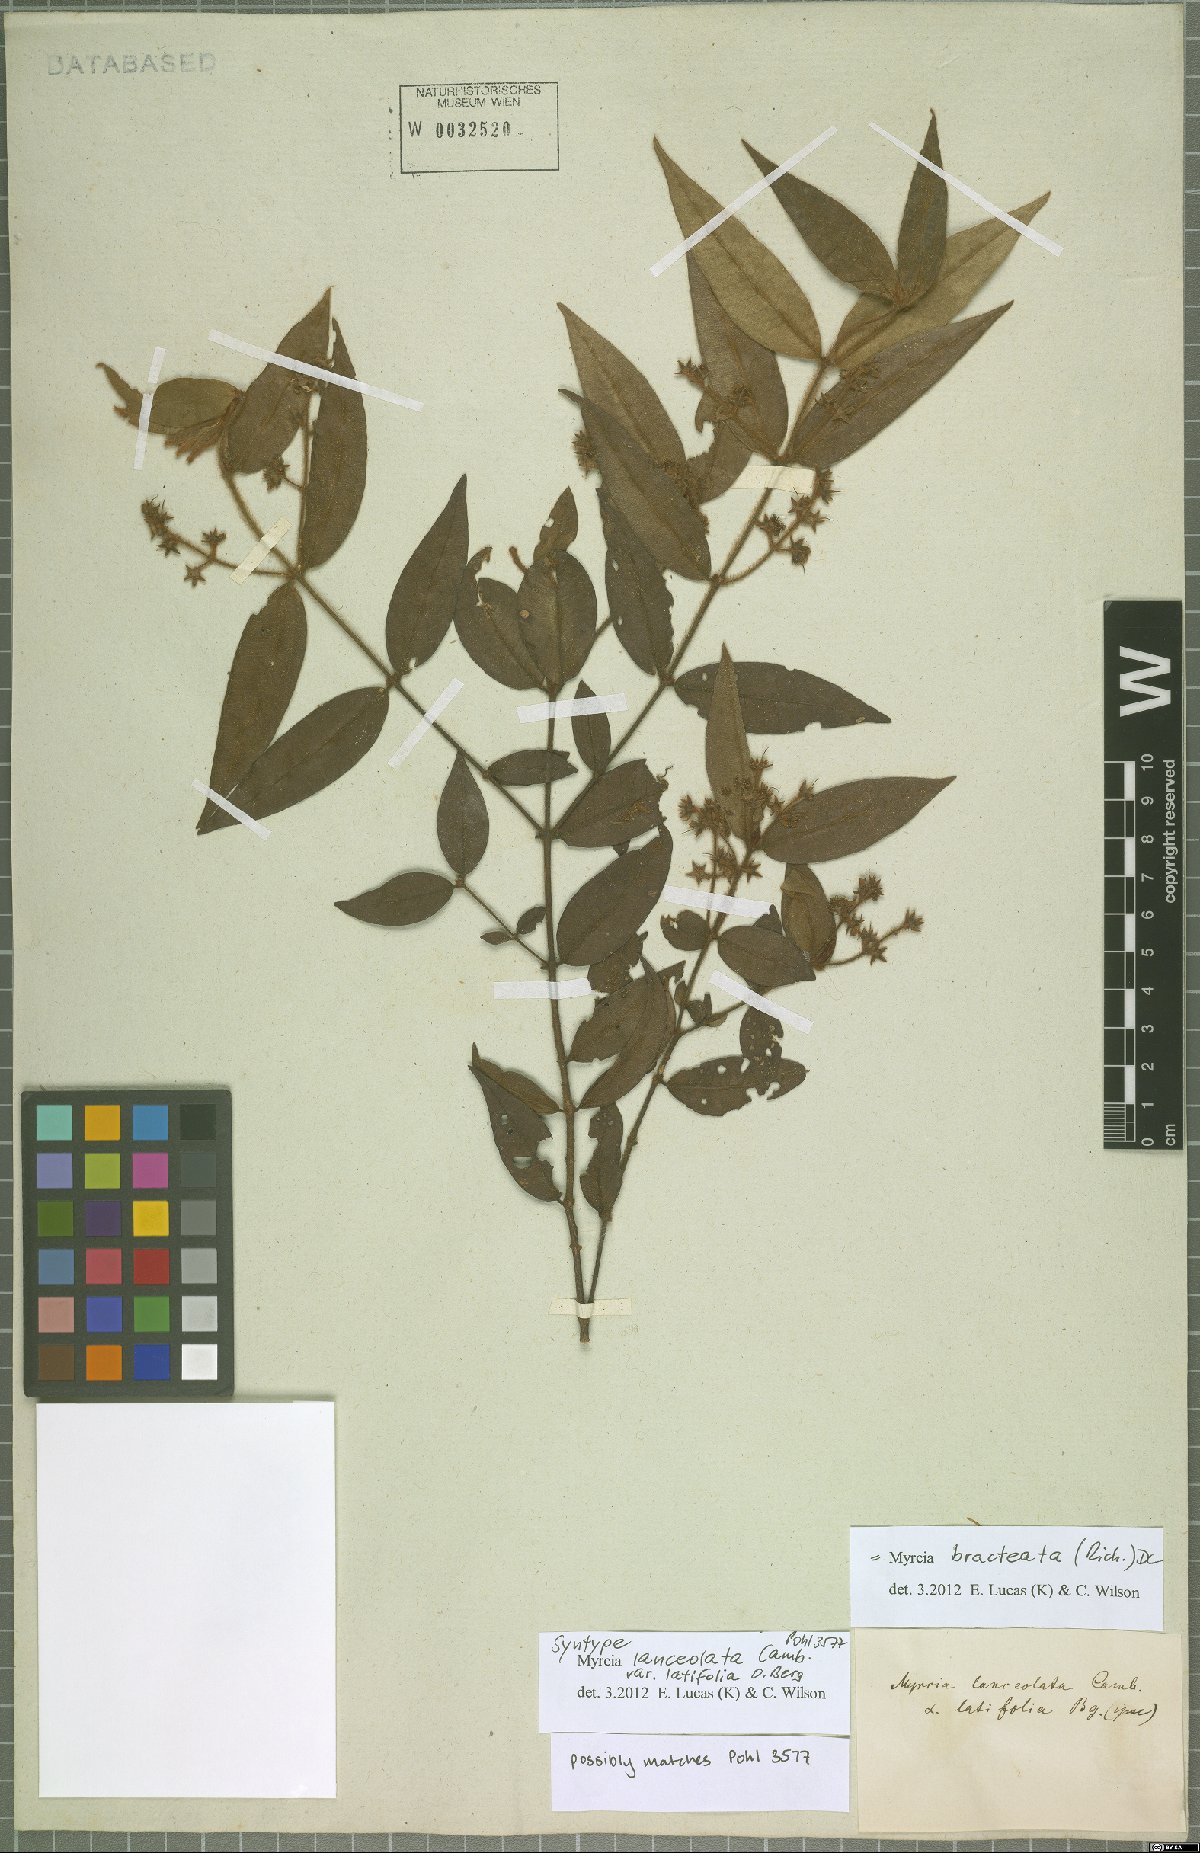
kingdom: Plantae
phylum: Tracheophyta
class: Magnoliopsida
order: Myrtales
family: Myrtaceae
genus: Myrcia
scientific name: Myrcia bracteata
